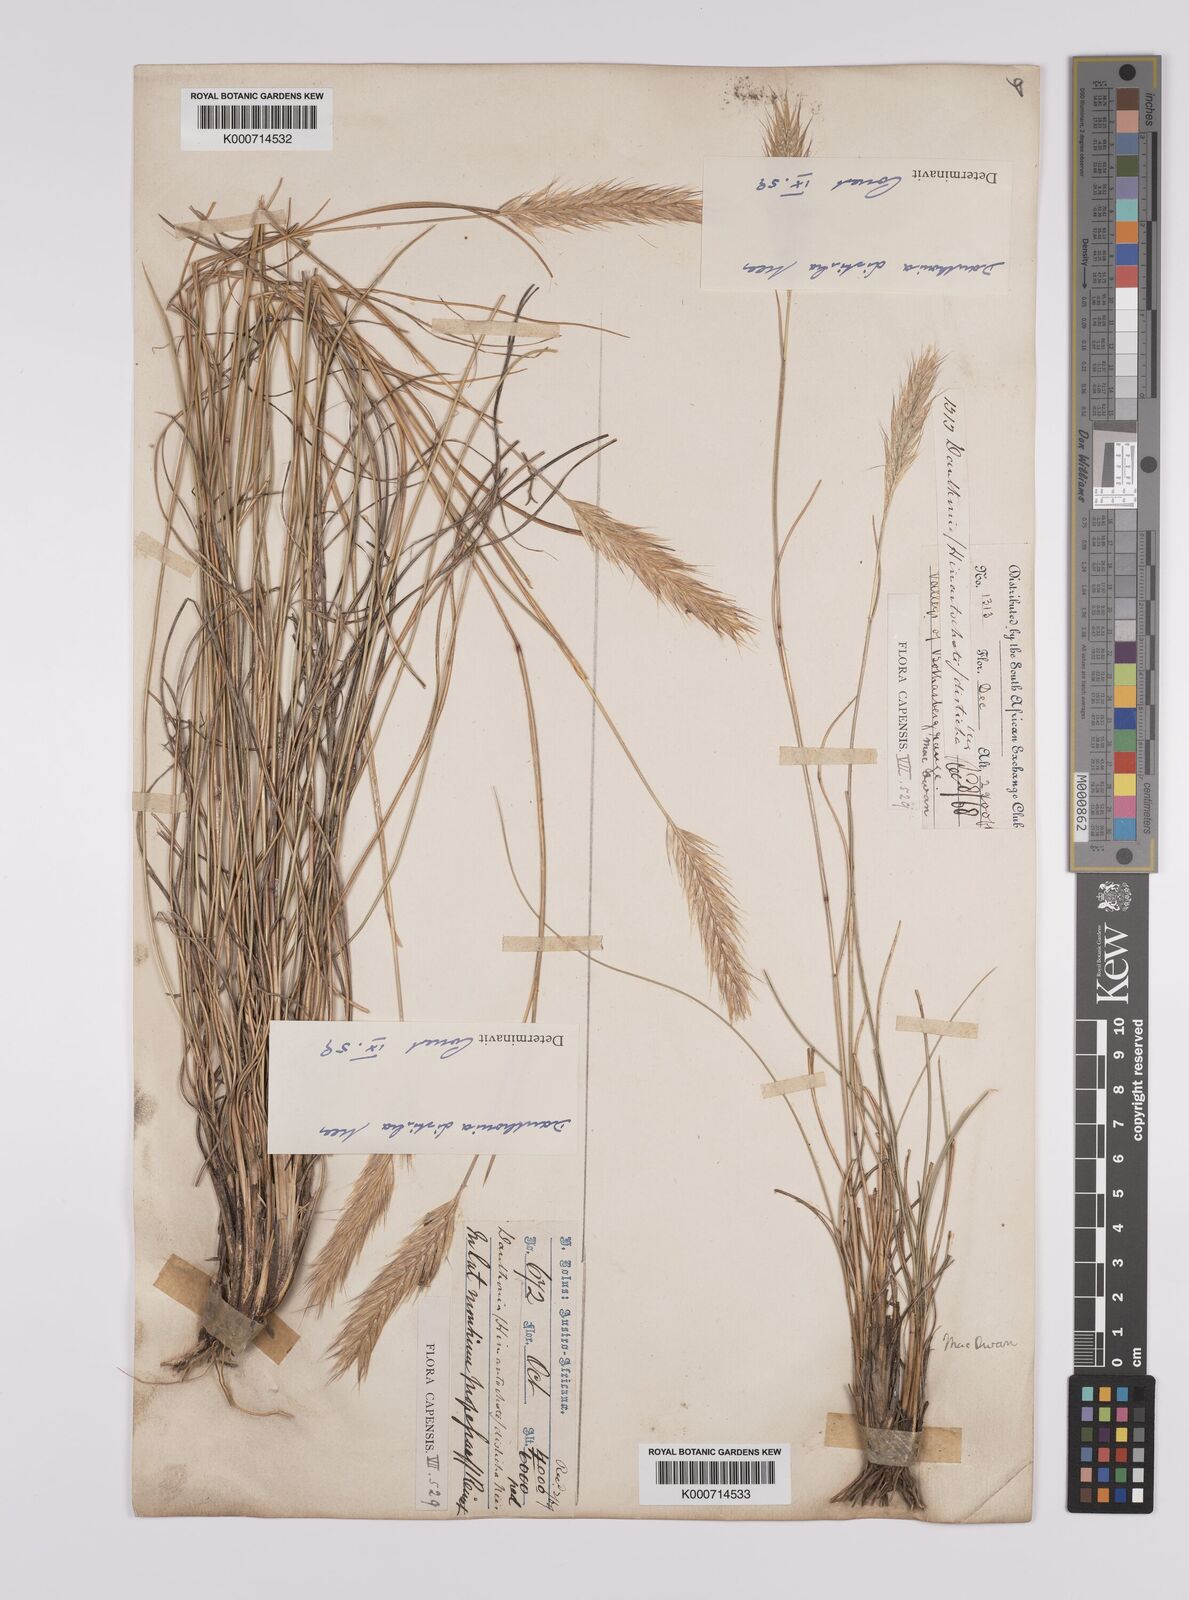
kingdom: Plantae
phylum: Tracheophyta
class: Liliopsida
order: Poales
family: Poaceae
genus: Tenaxia
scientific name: Tenaxia disticha
